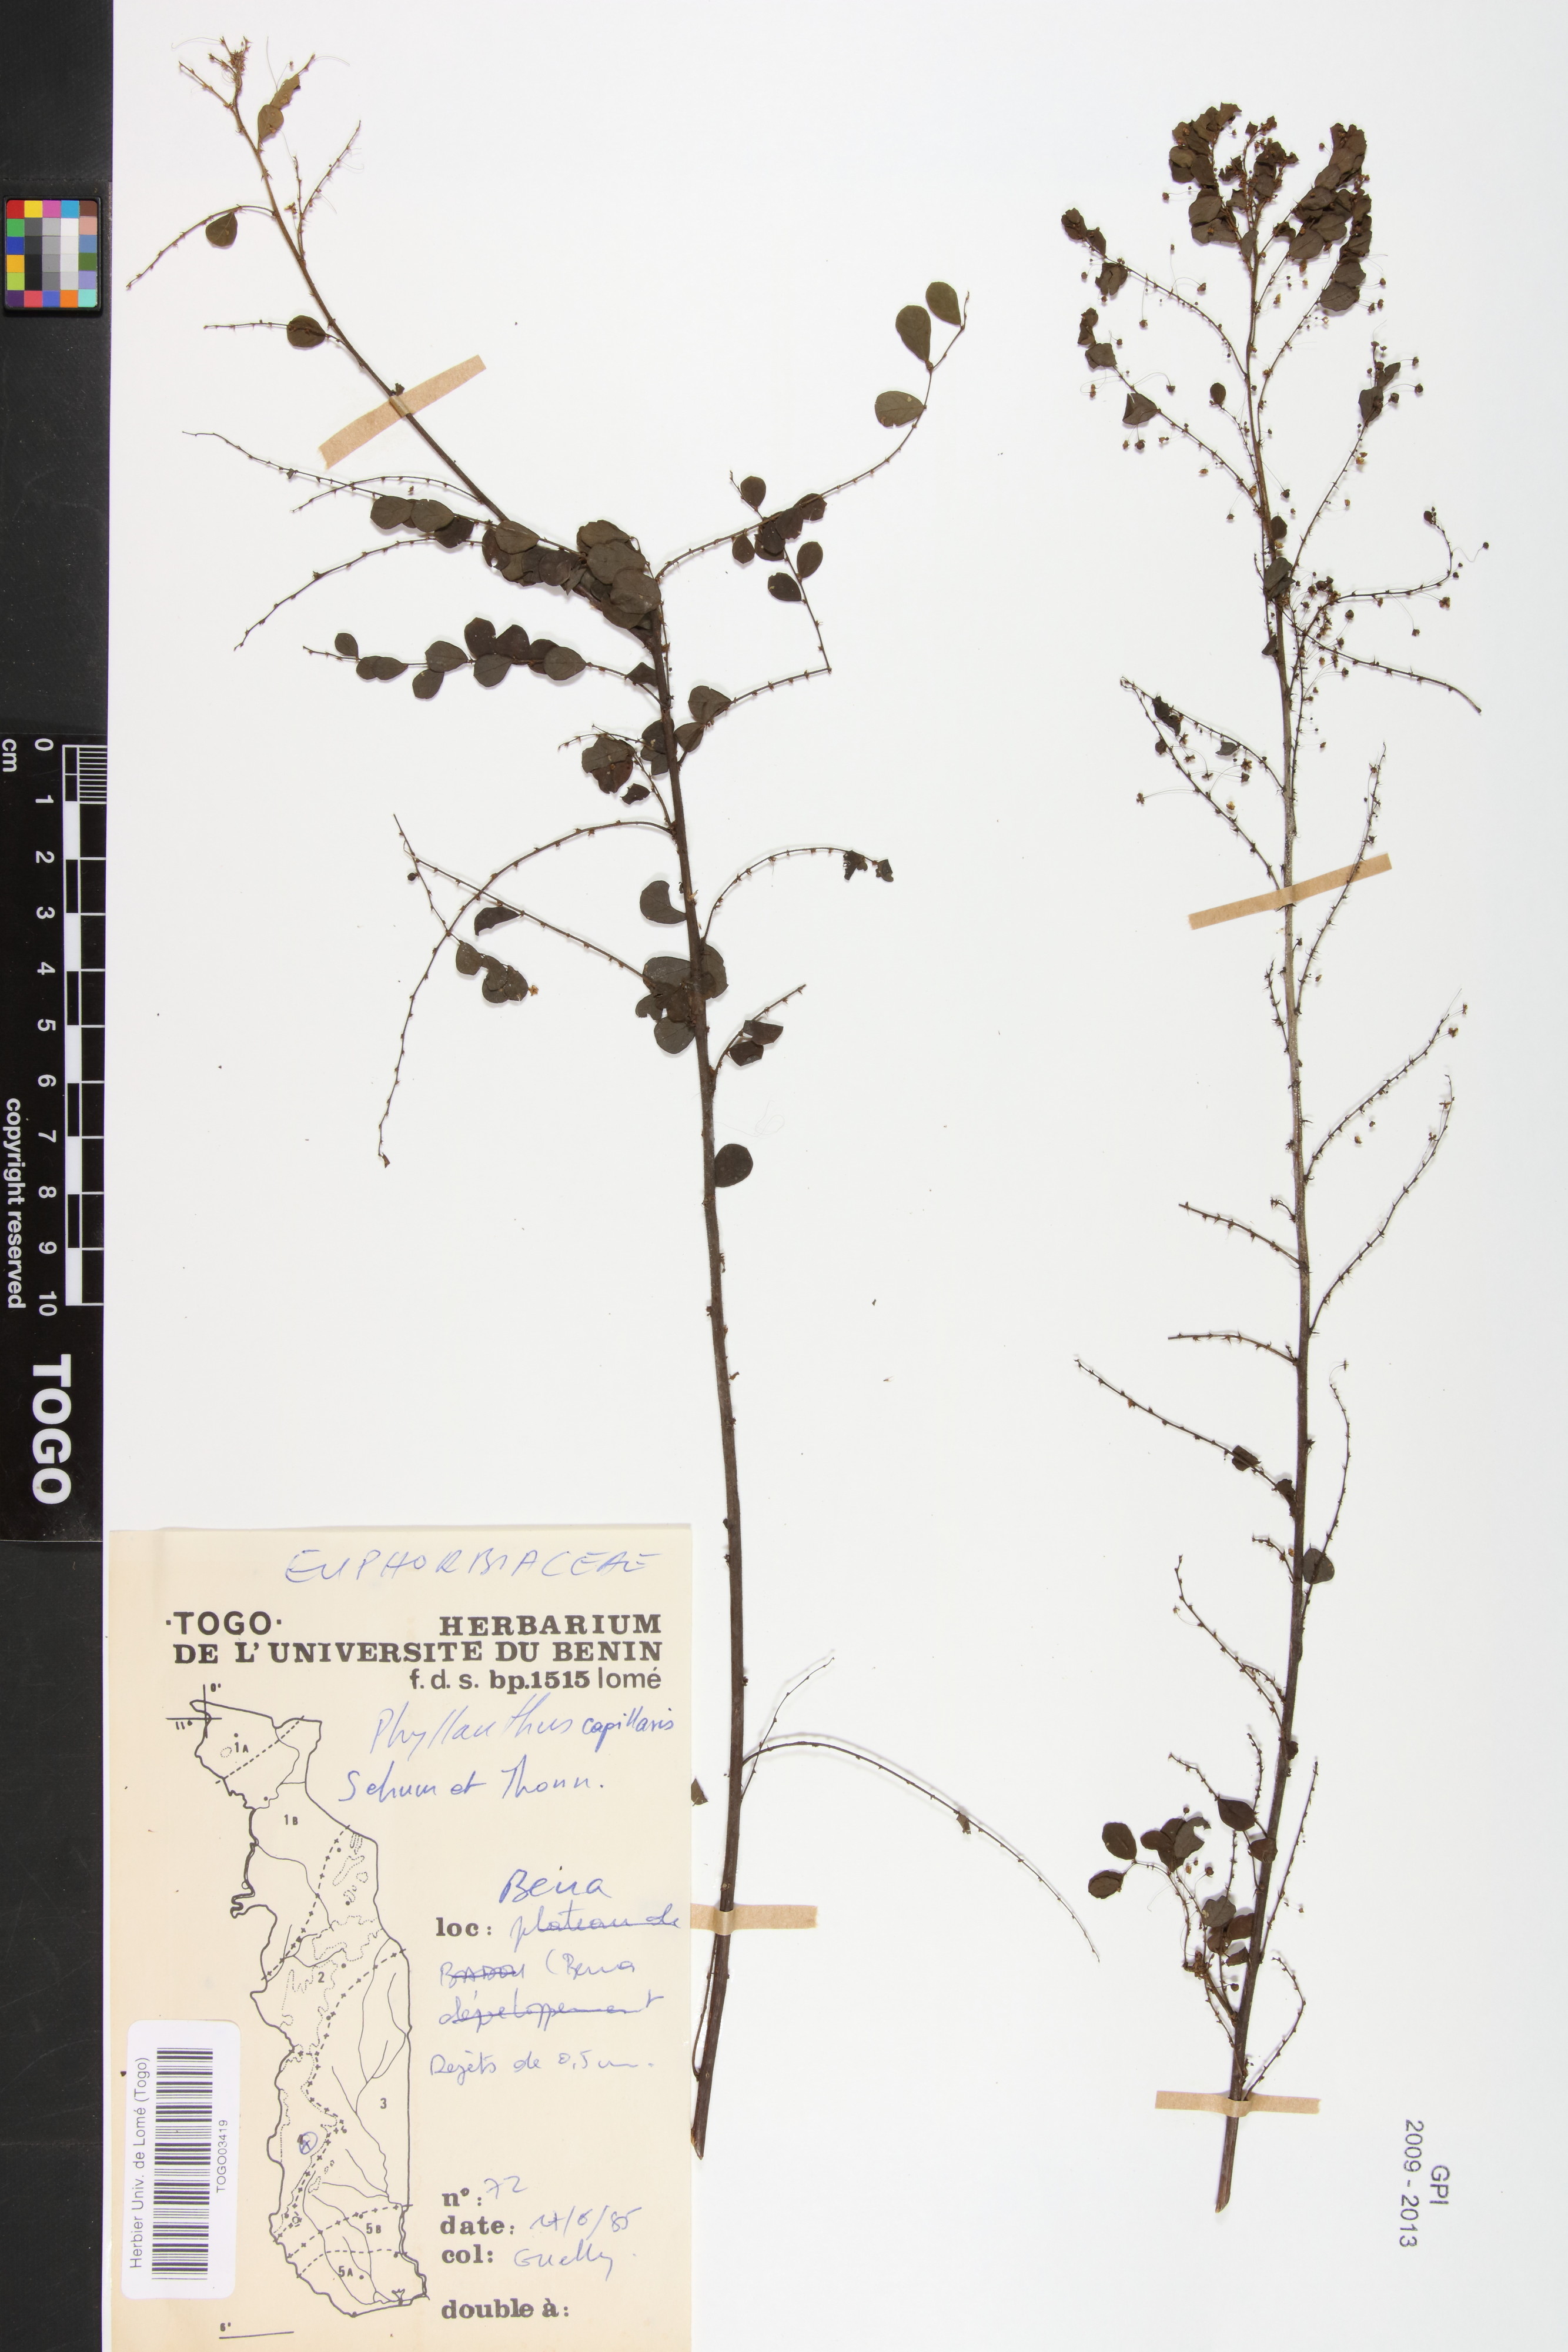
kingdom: Plantae
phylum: Tracheophyta
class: Magnoliopsida
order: Malpighiales
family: Phyllanthaceae
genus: Phyllanthus
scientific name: Phyllanthus nummulariifolius
